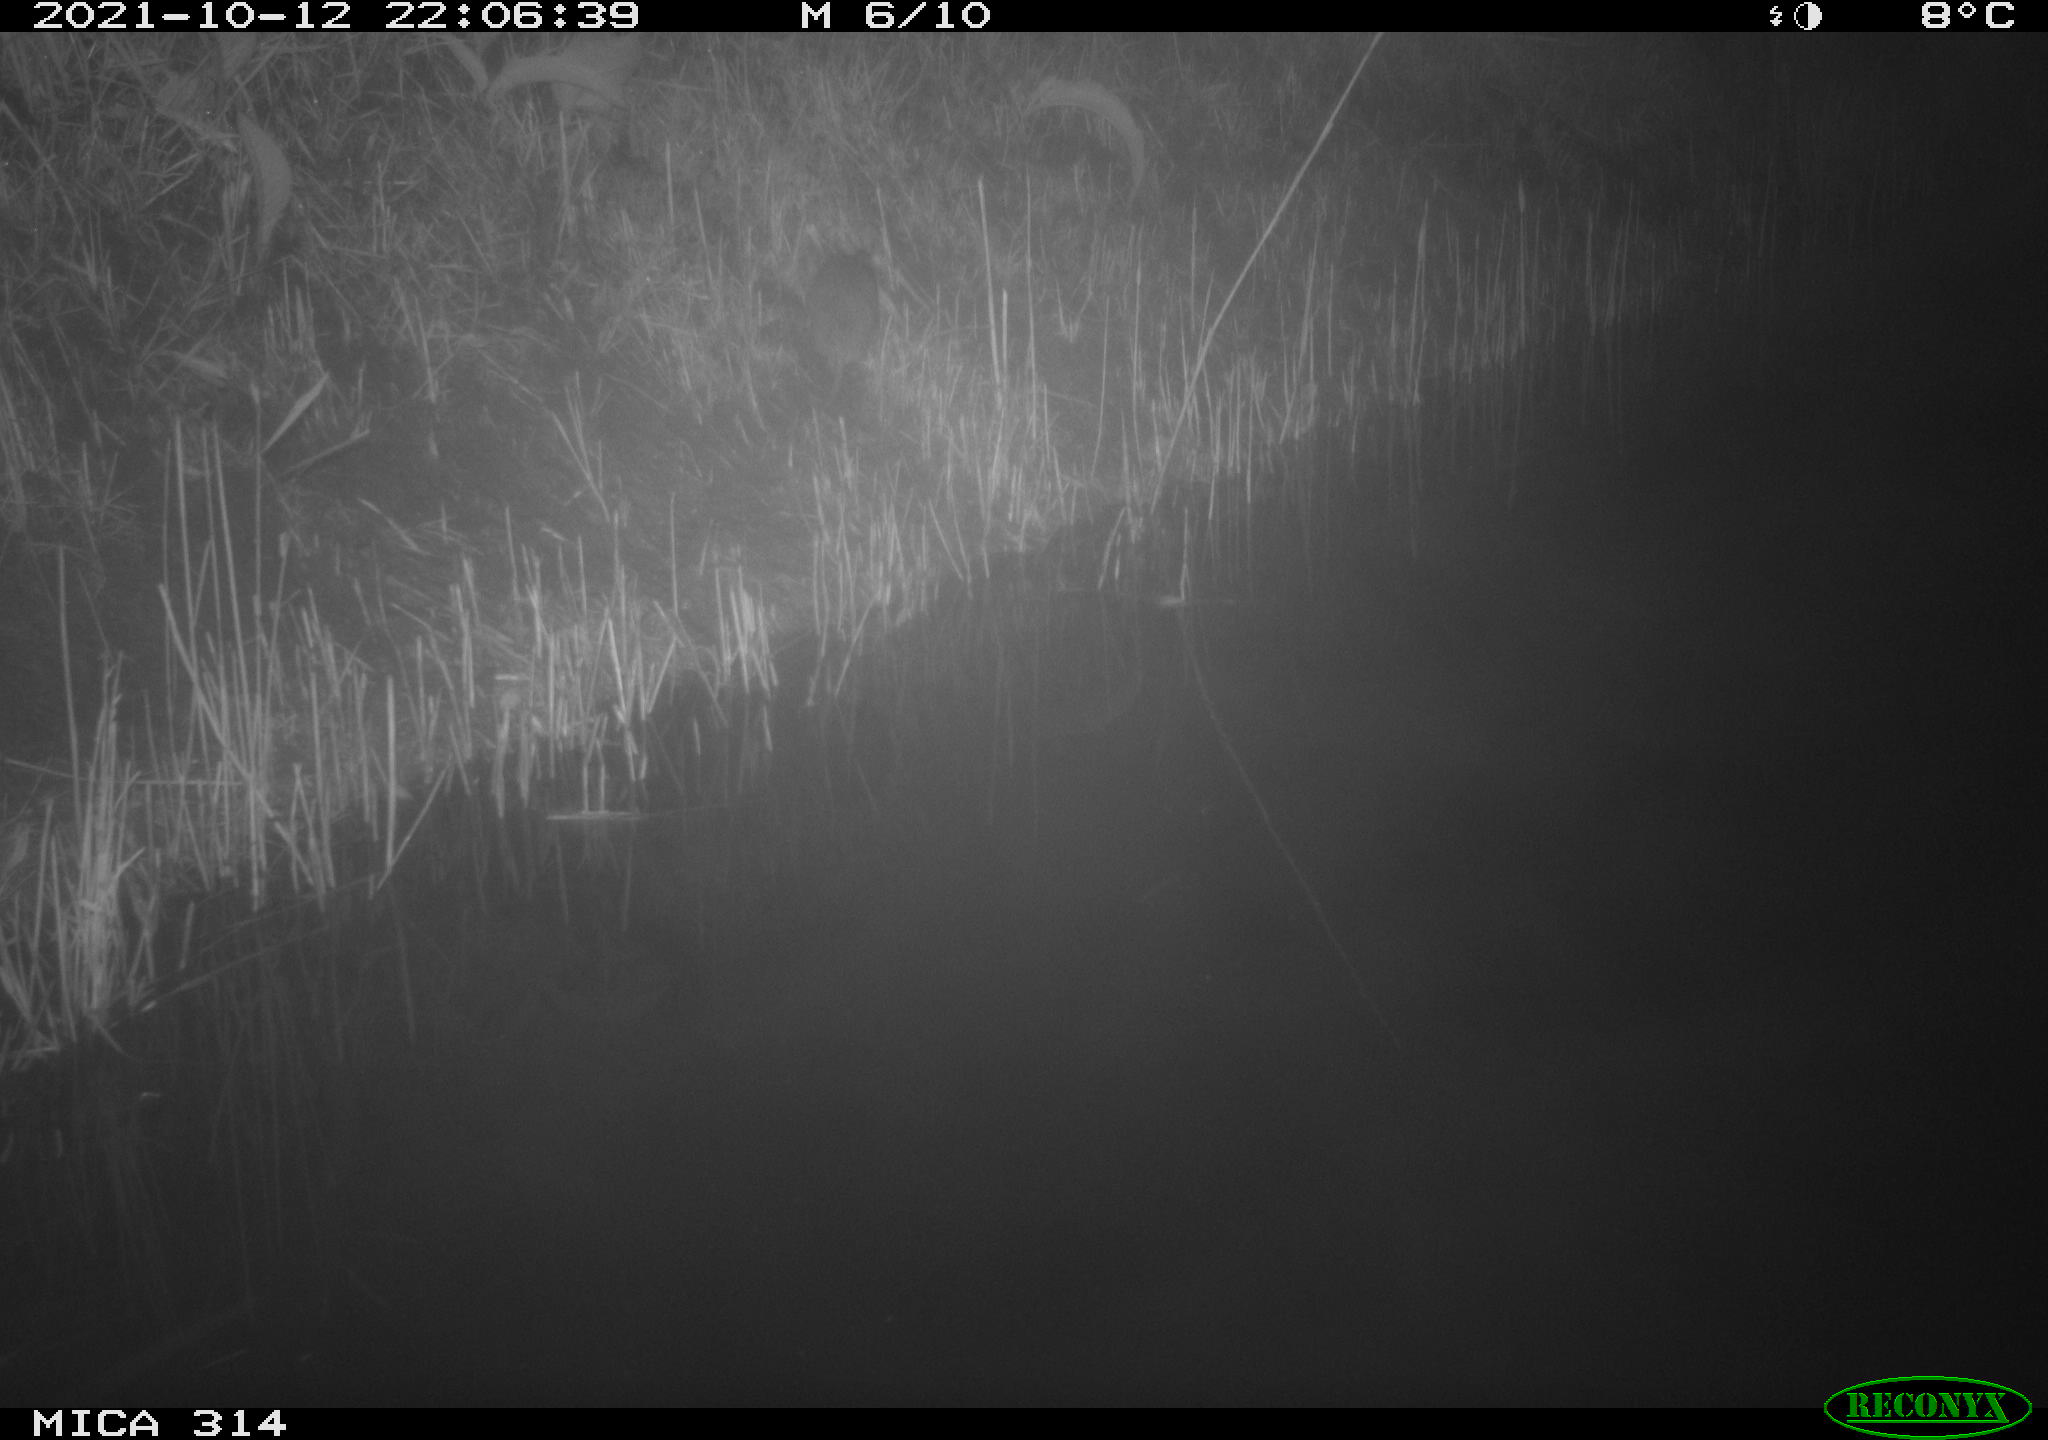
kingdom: Animalia
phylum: Chordata
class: Mammalia
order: Rodentia
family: Muridae
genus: Rattus
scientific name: Rattus norvegicus
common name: Brown rat
